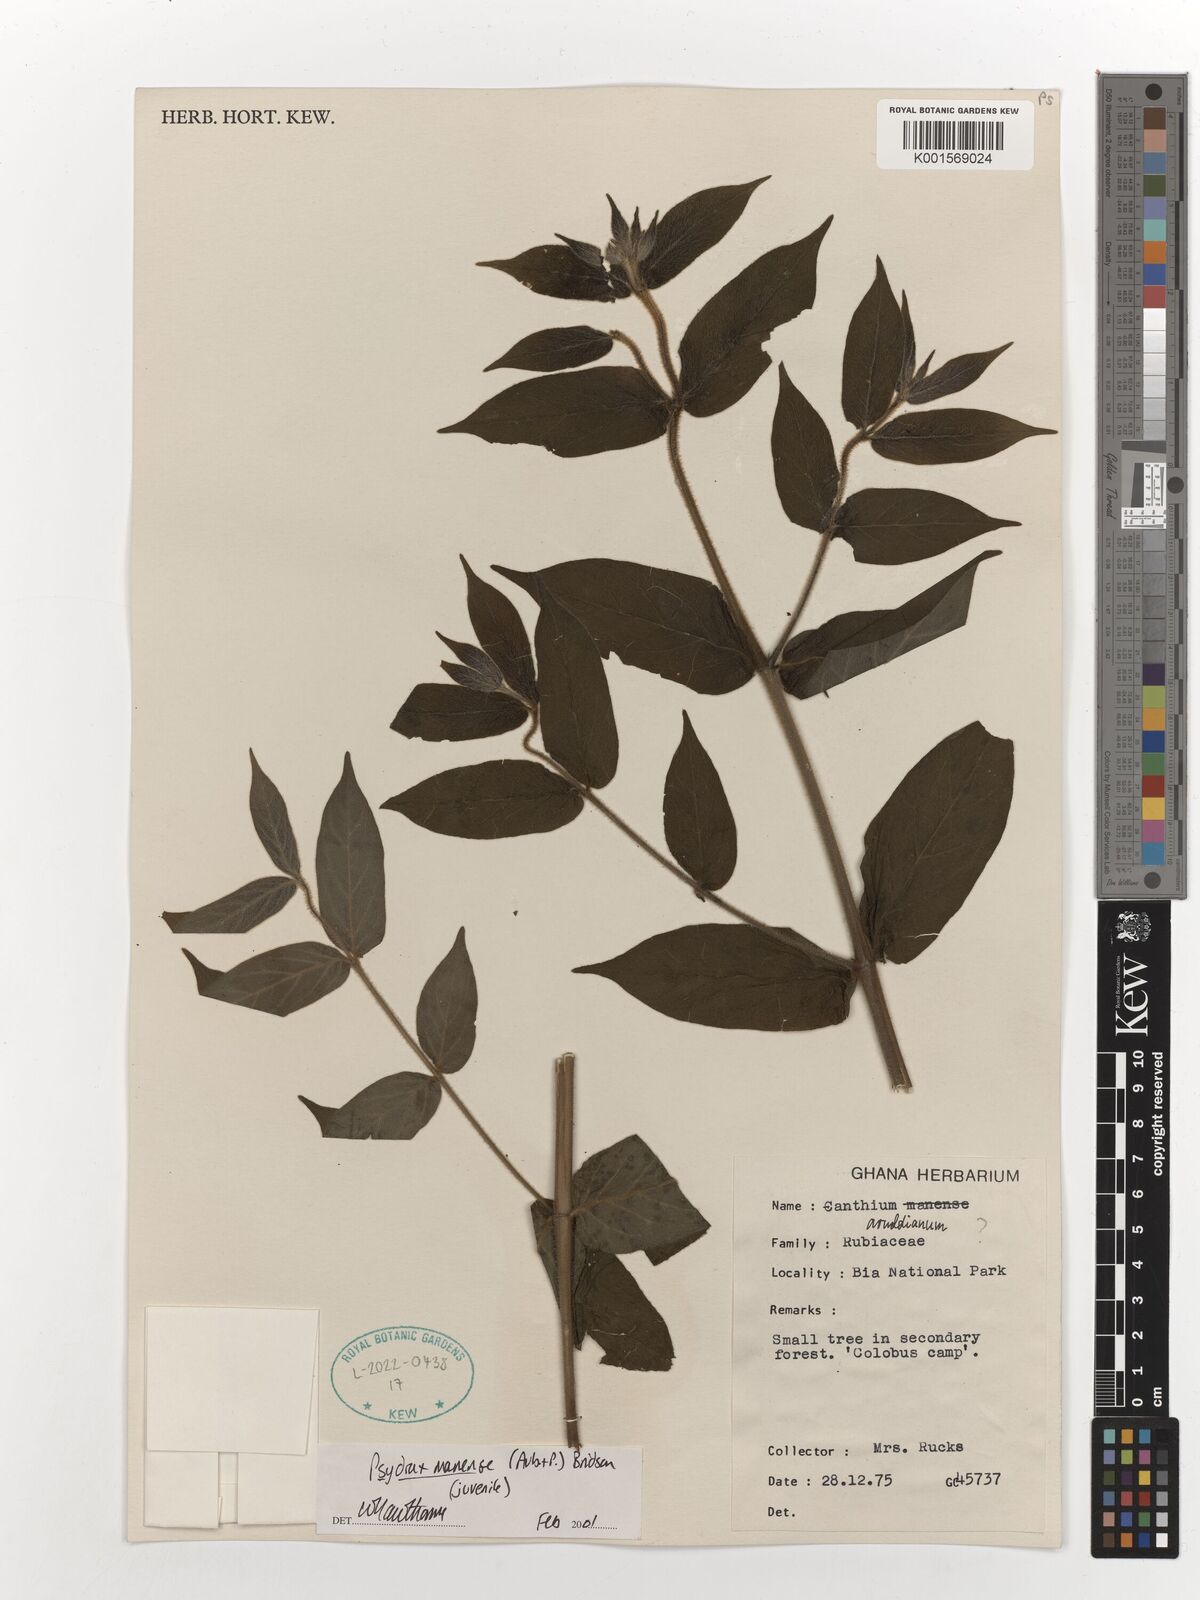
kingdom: Plantae
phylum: Tracheophyta
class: Magnoliopsida
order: Gentianales
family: Rubiaceae
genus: Psydrax
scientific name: Psydrax manensis
